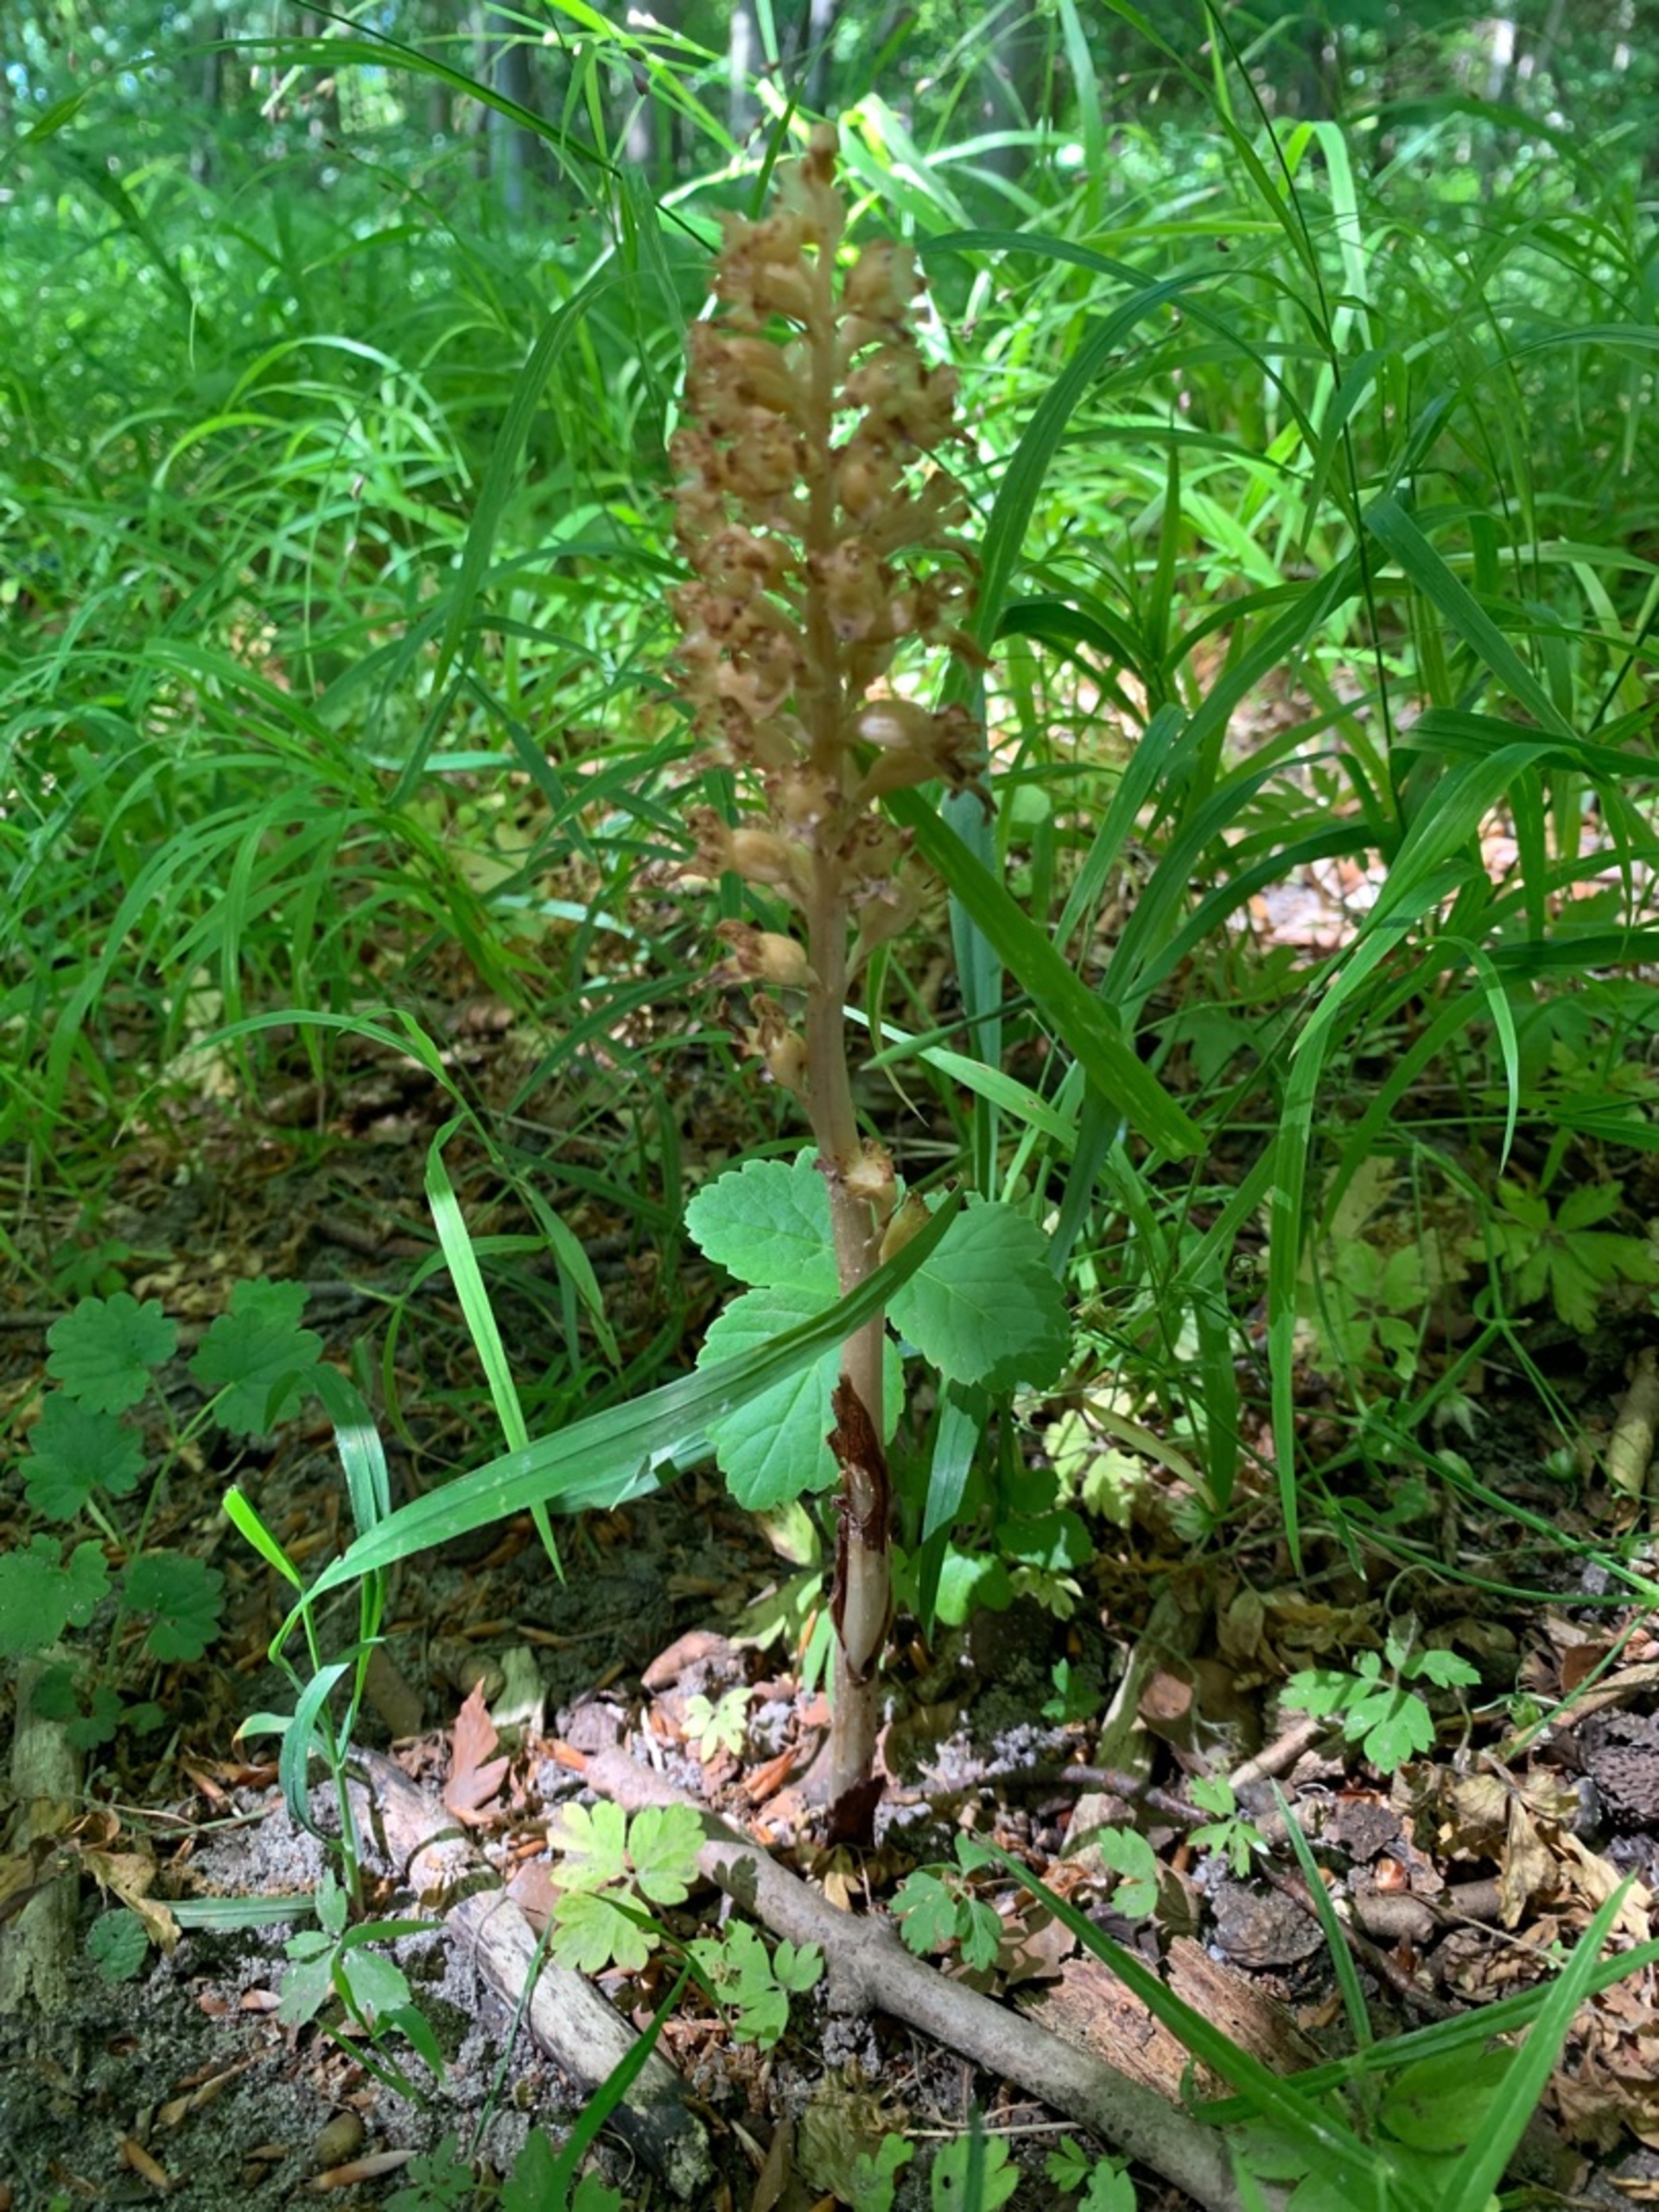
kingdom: Plantae
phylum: Tracheophyta
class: Liliopsida
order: Asparagales
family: Orchidaceae
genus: Neottia
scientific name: Neottia nidus-avis
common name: Rederod
